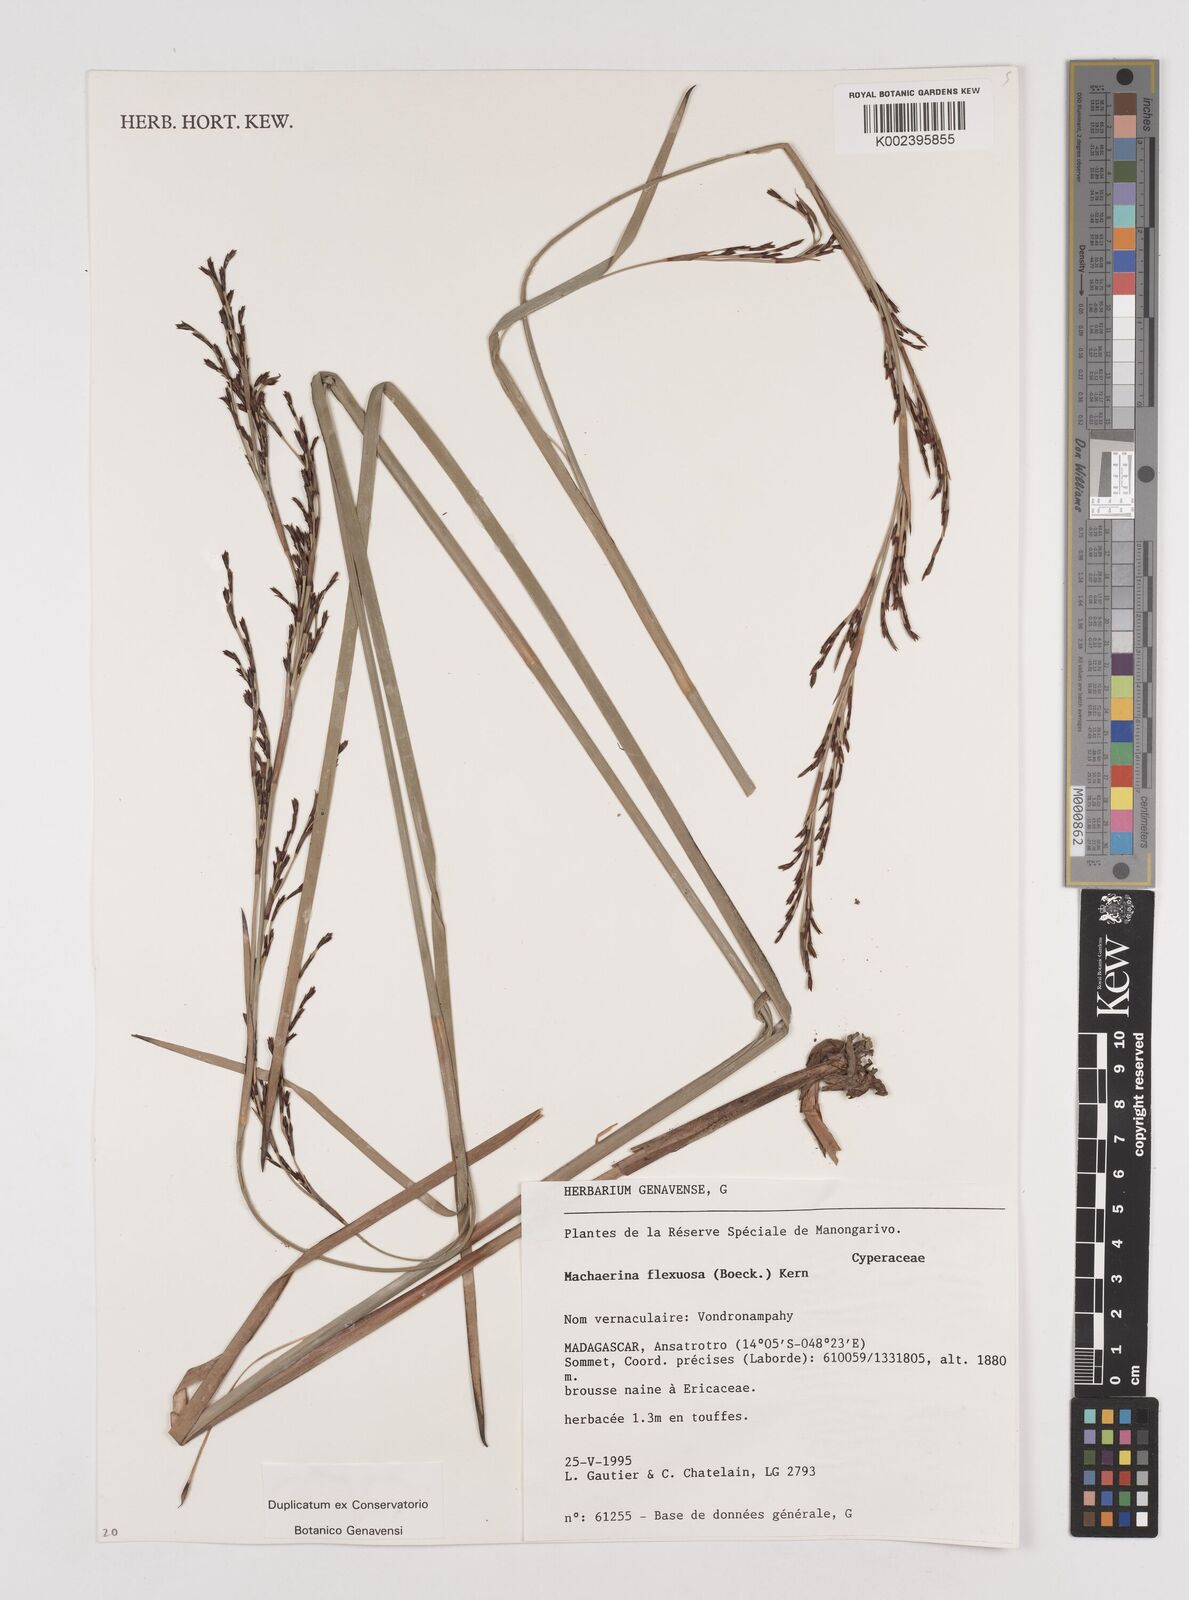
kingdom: Plantae
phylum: Tracheophyta
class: Liliopsida
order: Poales
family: Cyperaceae
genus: Machaerina
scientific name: Machaerina flexuosa
